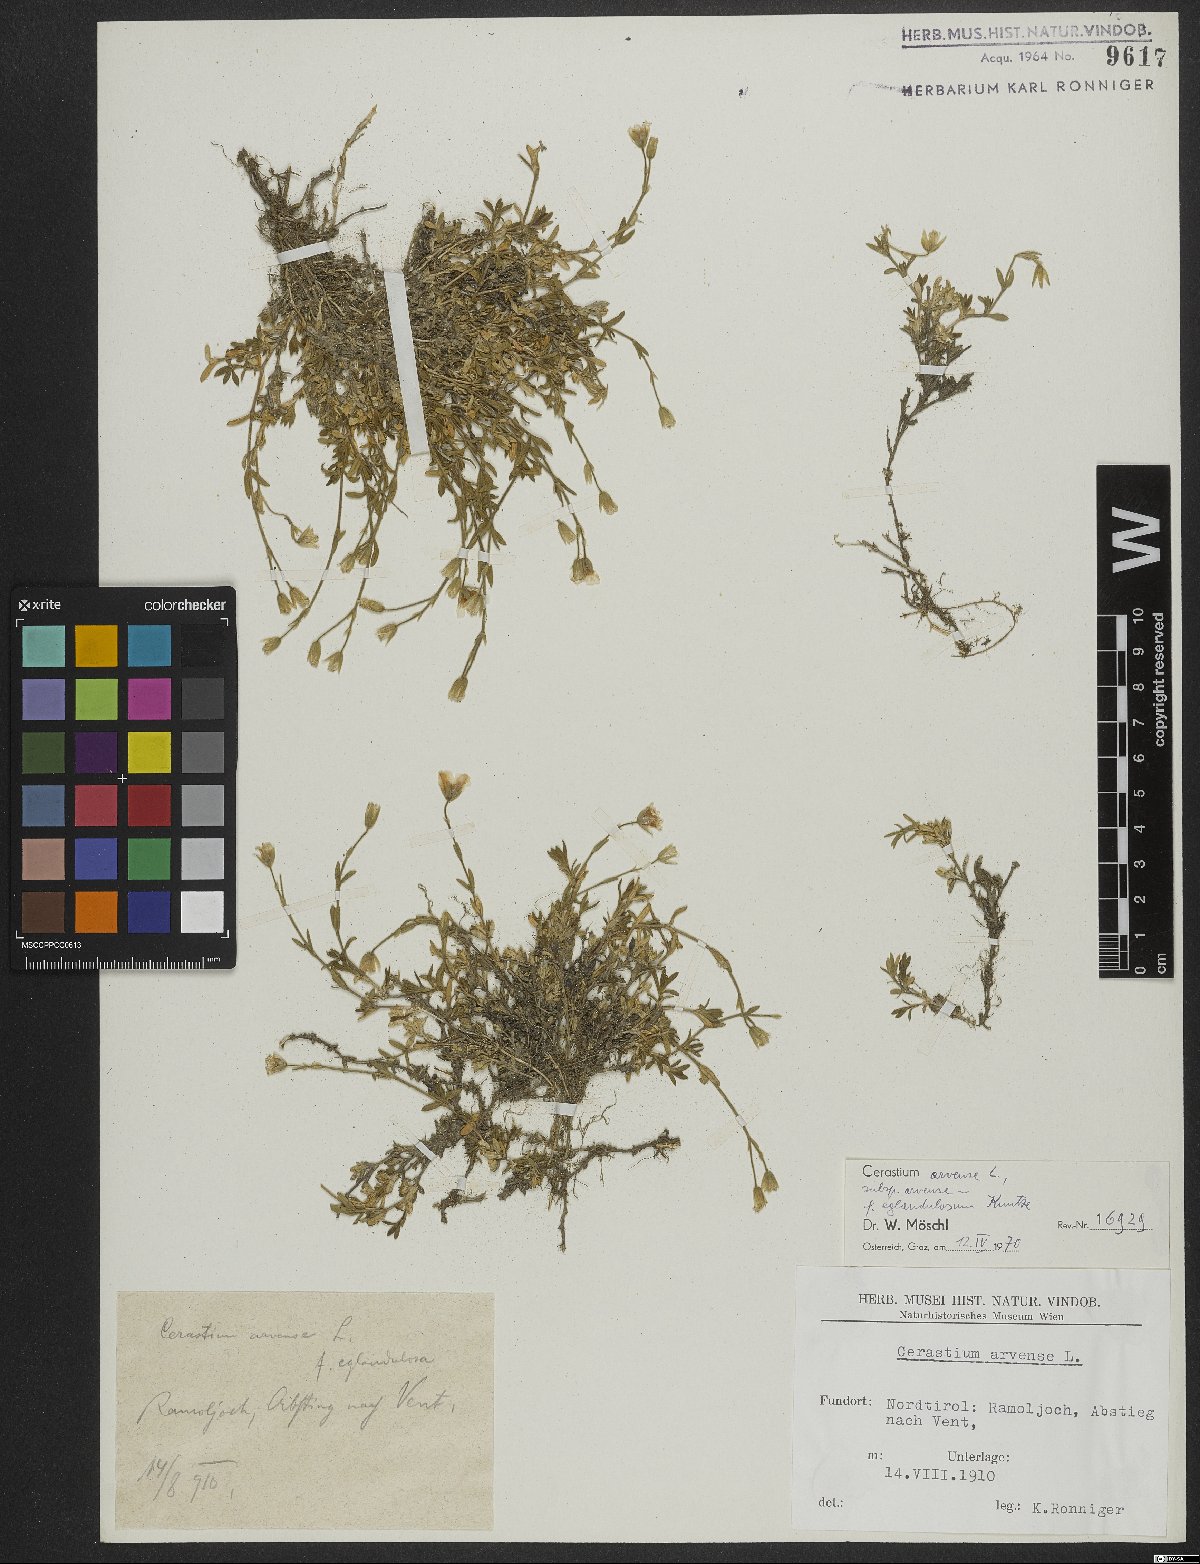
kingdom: Plantae
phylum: Tracheophyta
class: Magnoliopsida
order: Caryophyllales
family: Caryophyllaceae
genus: Cerastium
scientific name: Cerastium arvense
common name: Field mouse-ear
